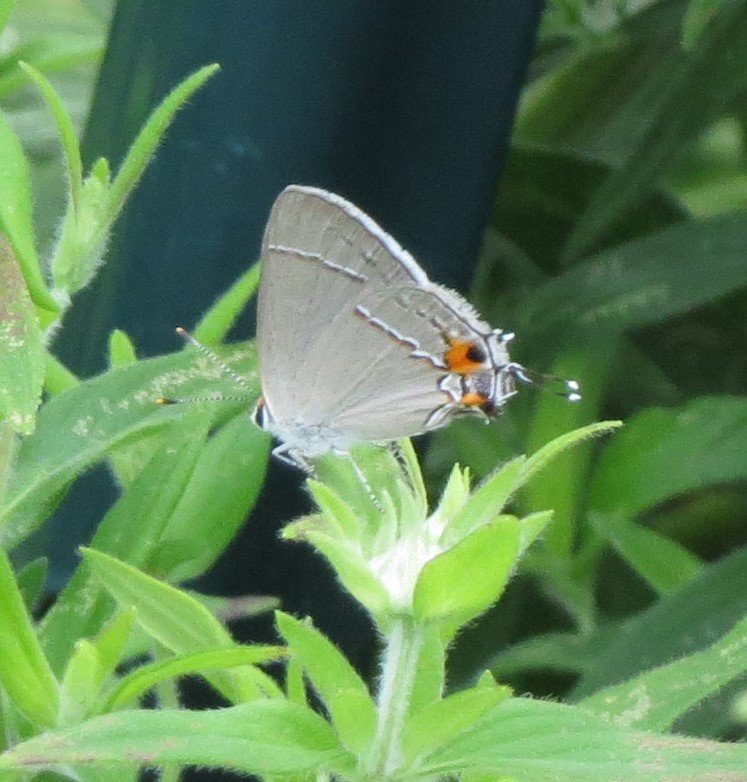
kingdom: Animalia
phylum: Arthropoda
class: Insecta
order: Lepidoptera
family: Lycaenidae
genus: Strymon
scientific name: Strymon melinus
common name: Gray Hairstreak
